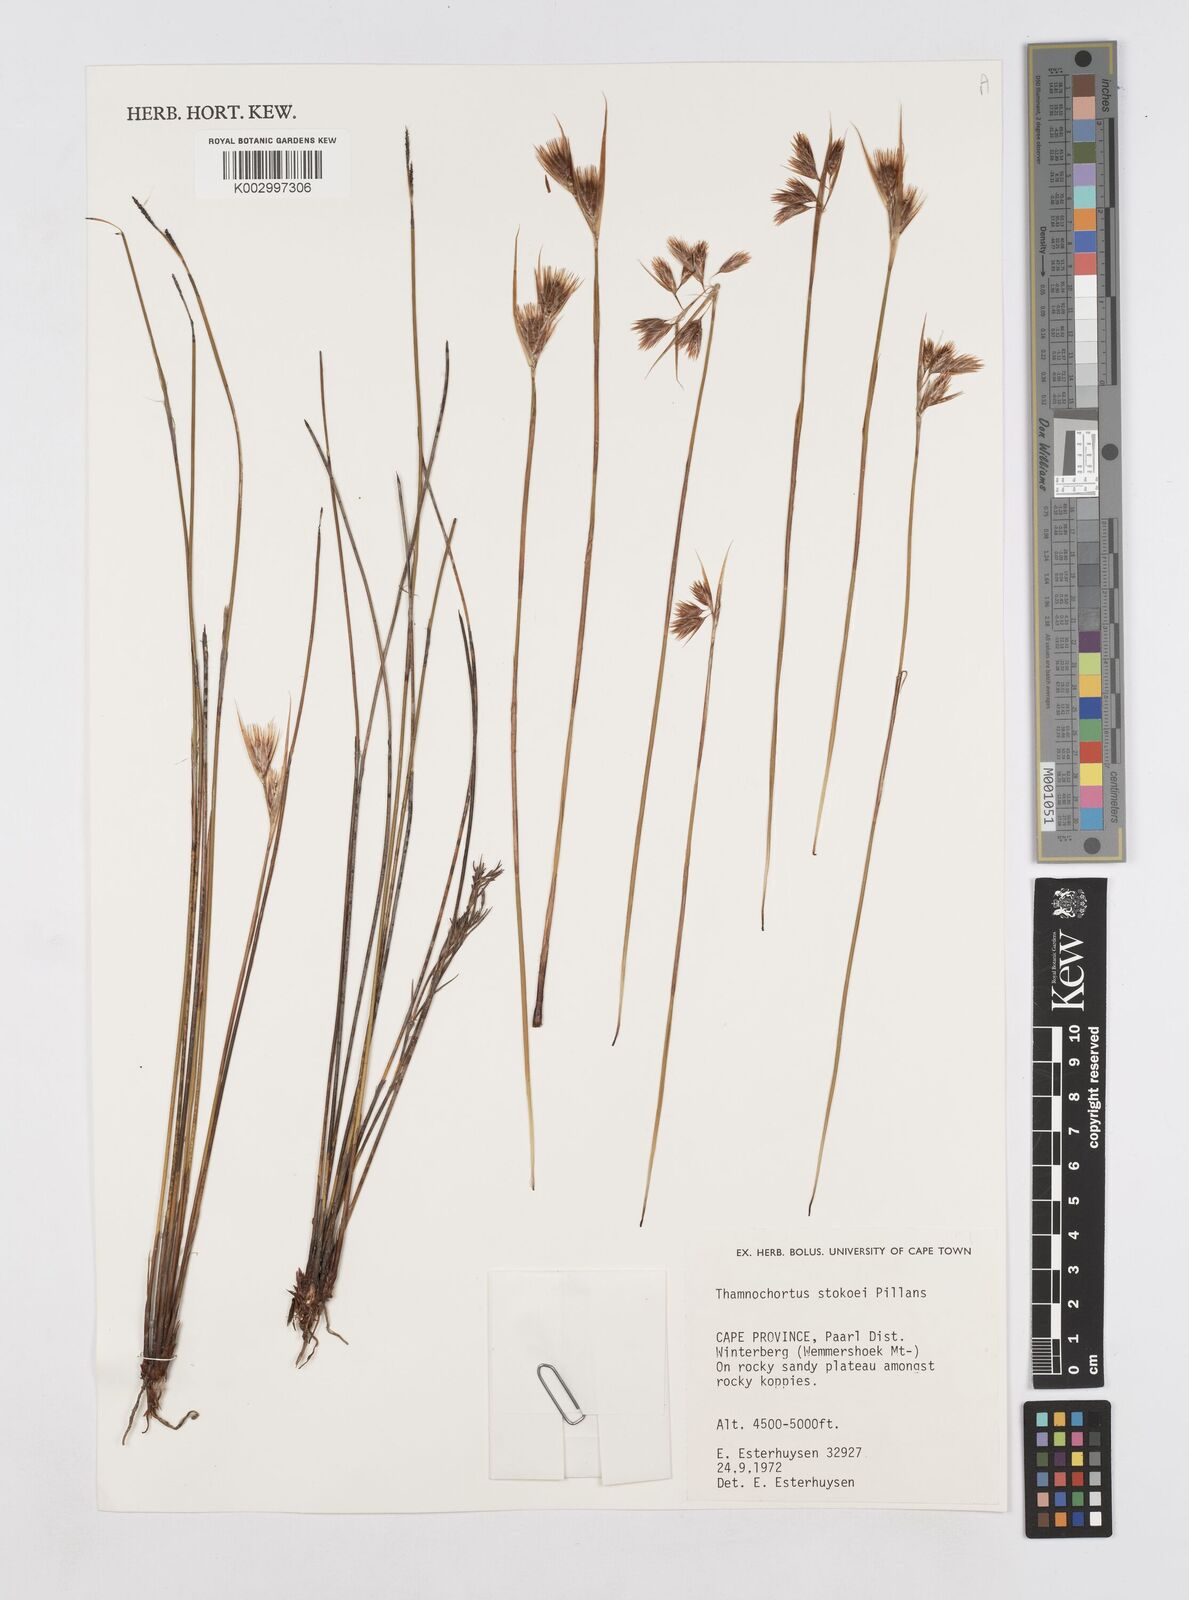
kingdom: Plantae
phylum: Tracheophyta
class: Liliopsida
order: Poales
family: Restionaceae
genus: Thamnochortus
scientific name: Thamnochortus stokoei
